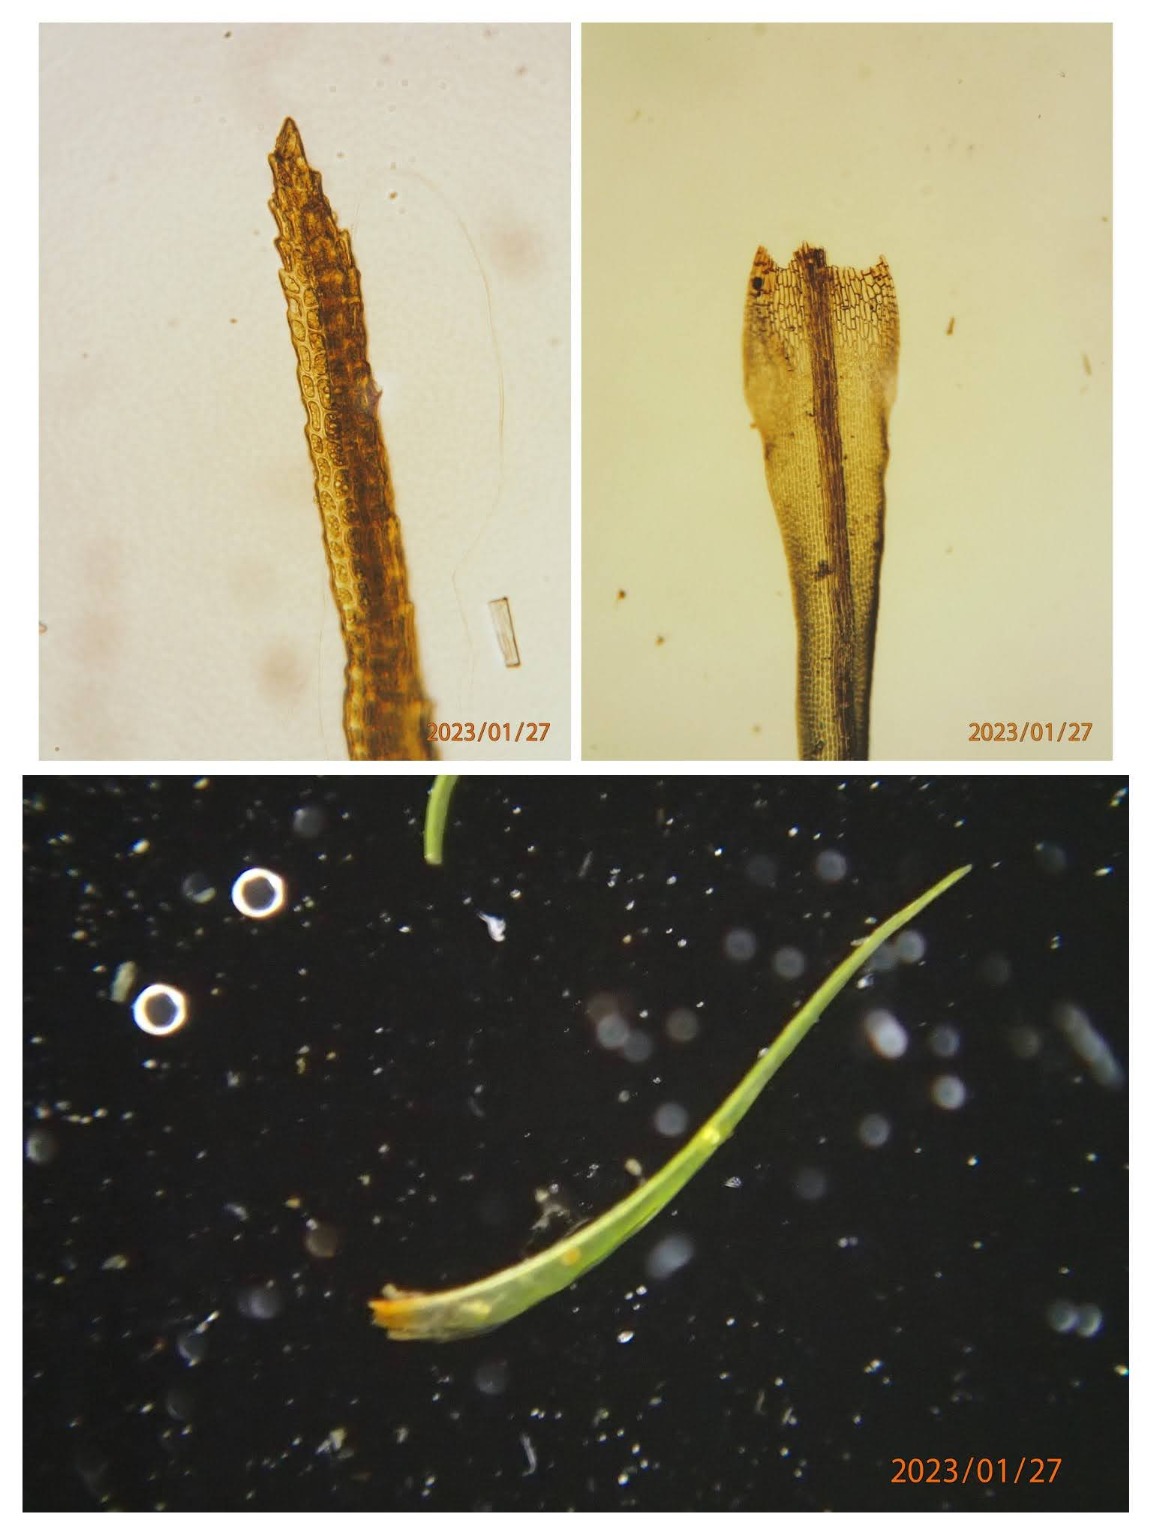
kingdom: Plantae
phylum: Bryophyta
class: Bryopsida
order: Dicranales
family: Dicranaceae
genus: Orthodicranum
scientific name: Orthodicranum montanum
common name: Tæt tyndvinge
